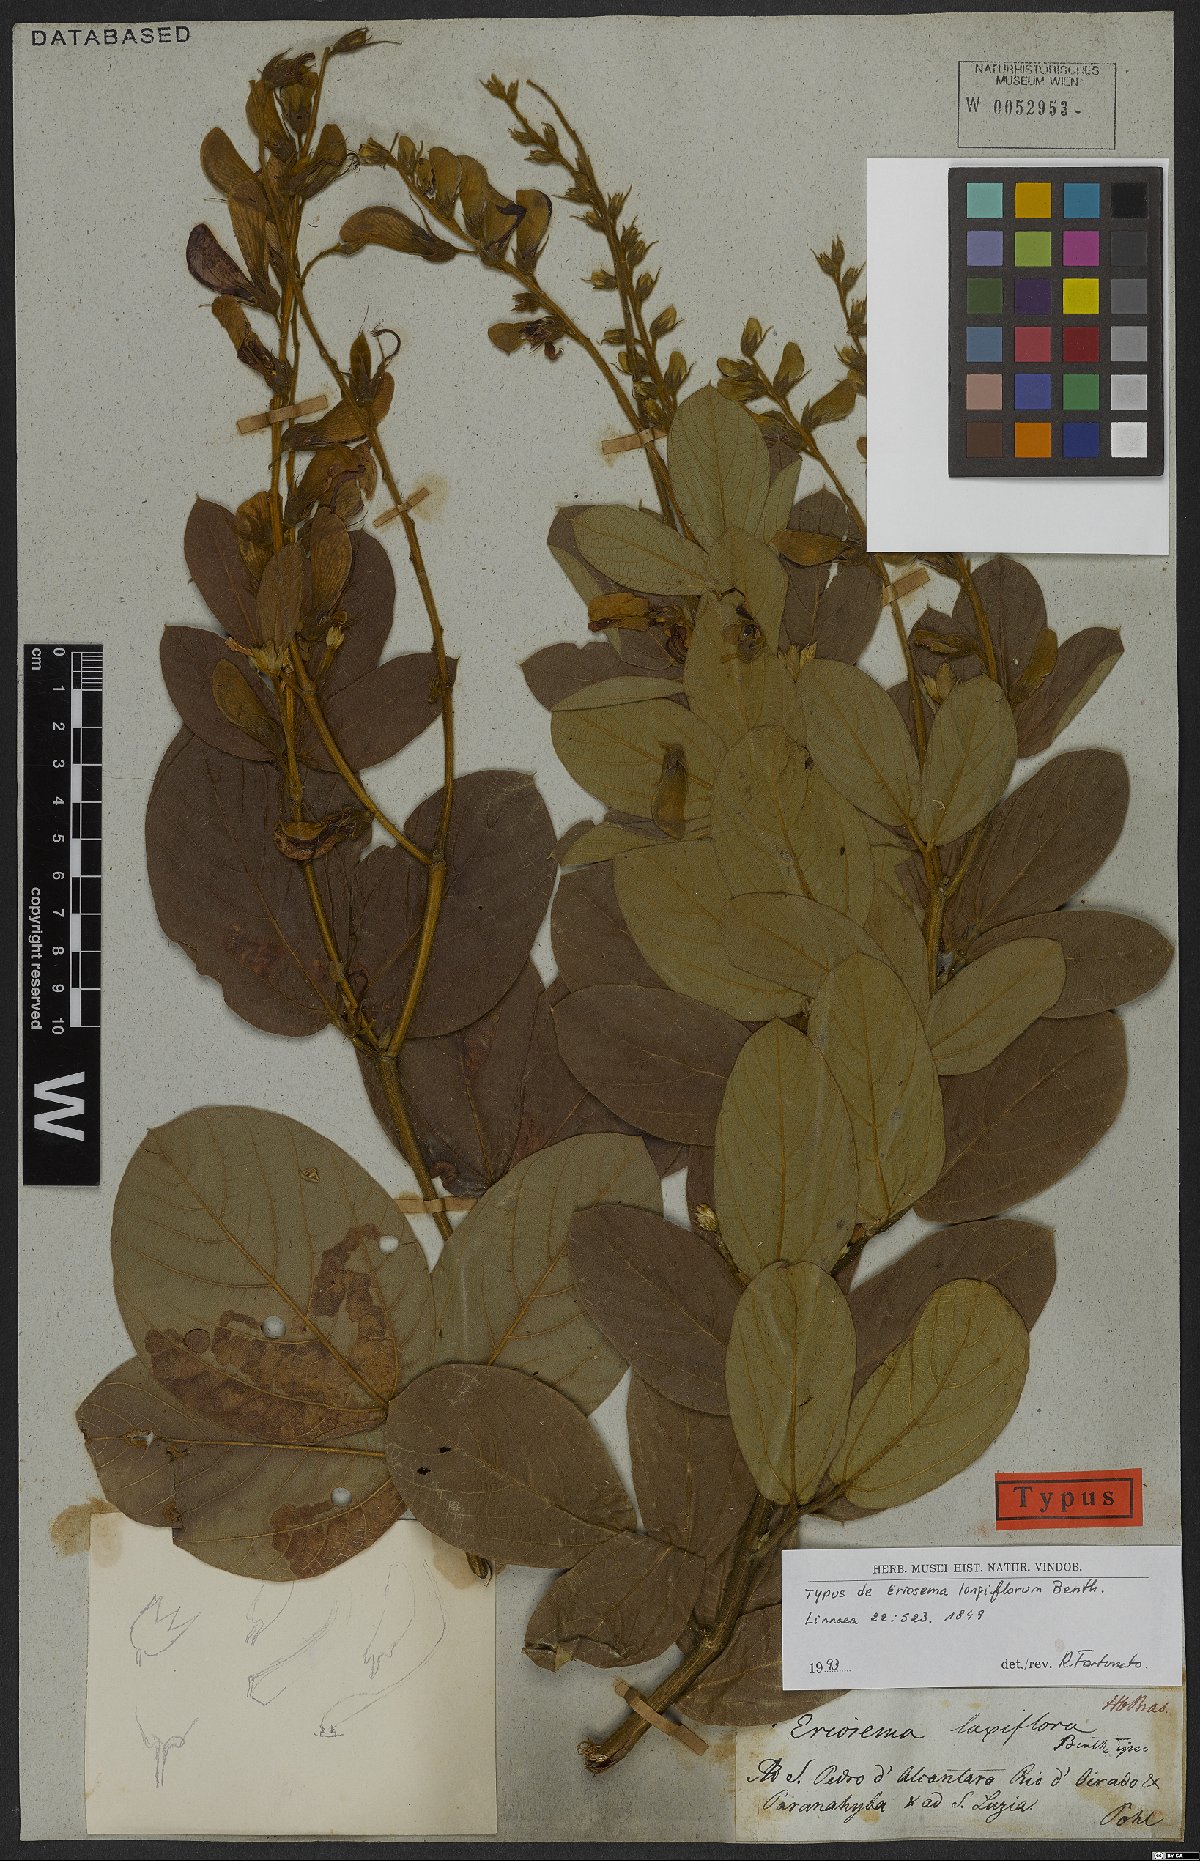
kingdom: Plantae
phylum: Tracheophyta
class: Magnoliopsida
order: Fabales
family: Fabaceae
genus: Eriosema
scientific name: Eriosema longiflorum
